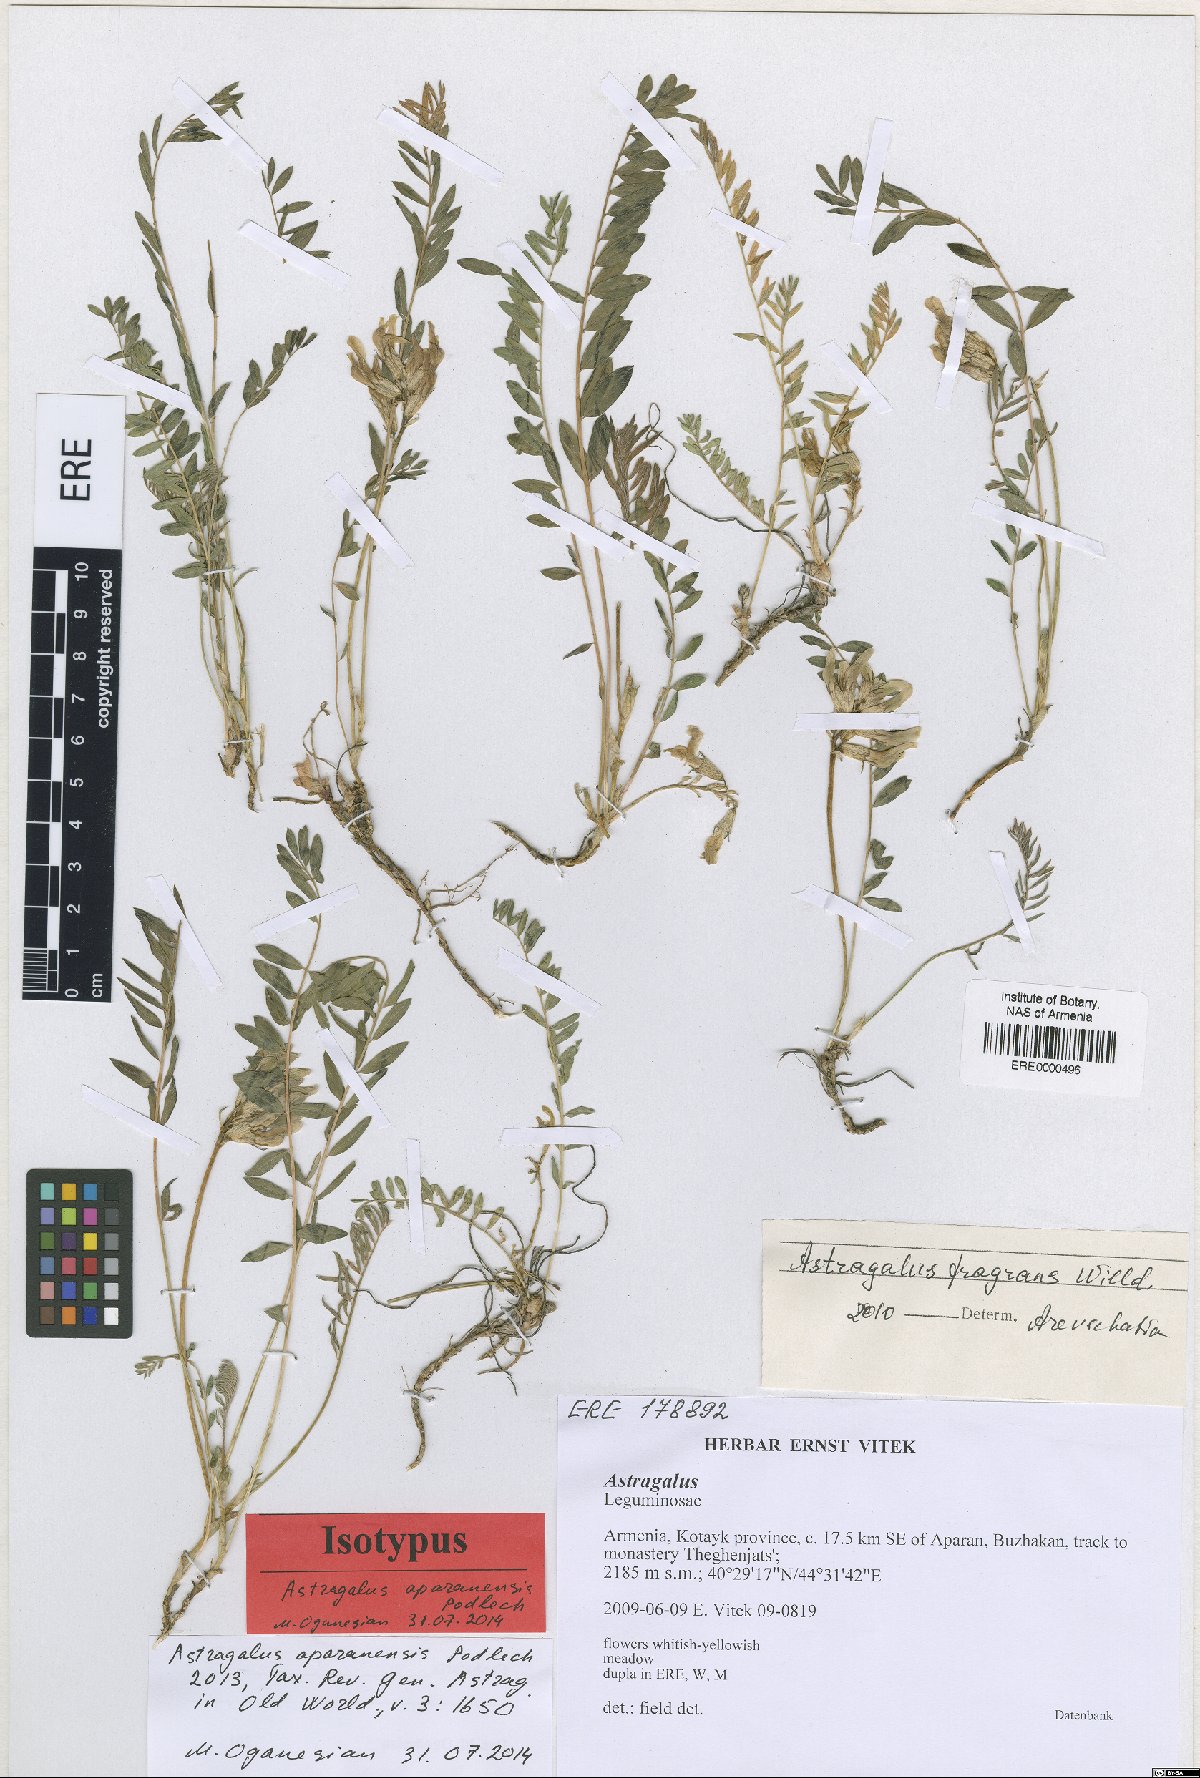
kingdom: Plantae
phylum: Tracheophyta
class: Magnoliopsida
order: Fabales
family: Fabaceae
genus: Astragalus
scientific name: Astragalus aparanensis
